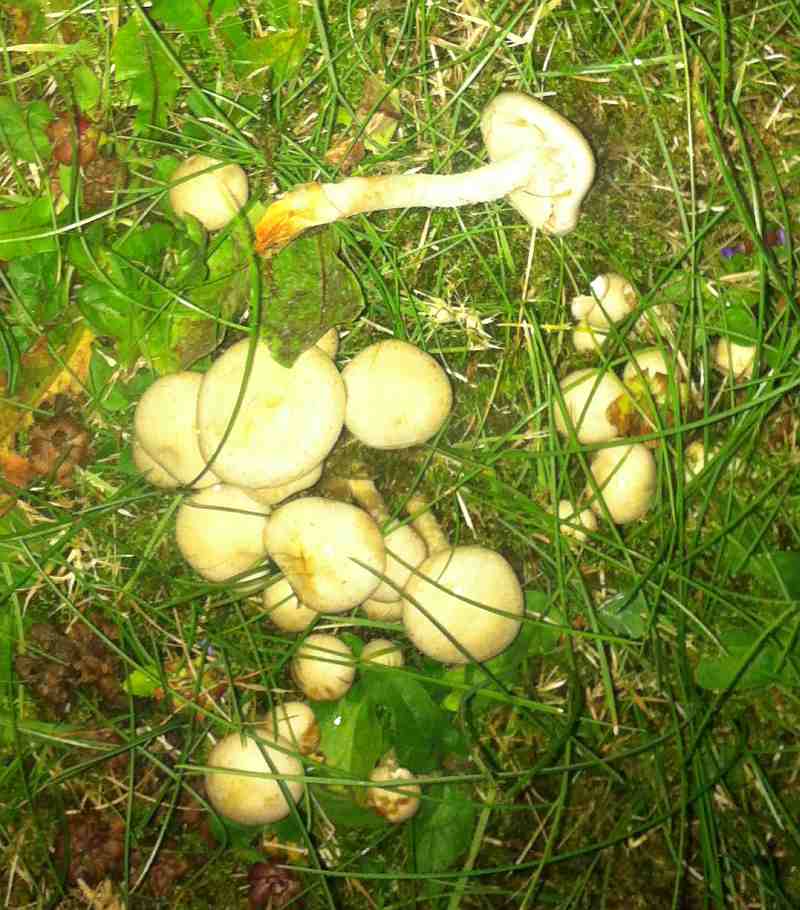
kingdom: Fungi
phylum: Basidiomycota
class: Agaricomycetes
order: Agaricales
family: Strophariaceae
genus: Pholiota
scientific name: Pholiota gummosa
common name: grøngul skælhat
